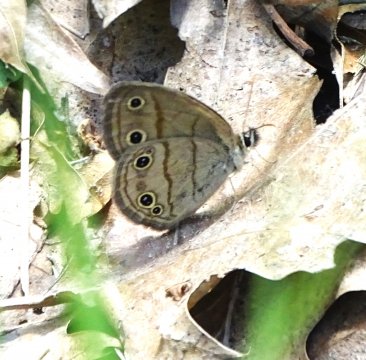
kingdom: Animalia
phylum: Arthropoda
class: Insecta
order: Lepidoptera
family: Nymphalidae
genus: Euptychia
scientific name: Euptychia cymela
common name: Little Wood Satyr
